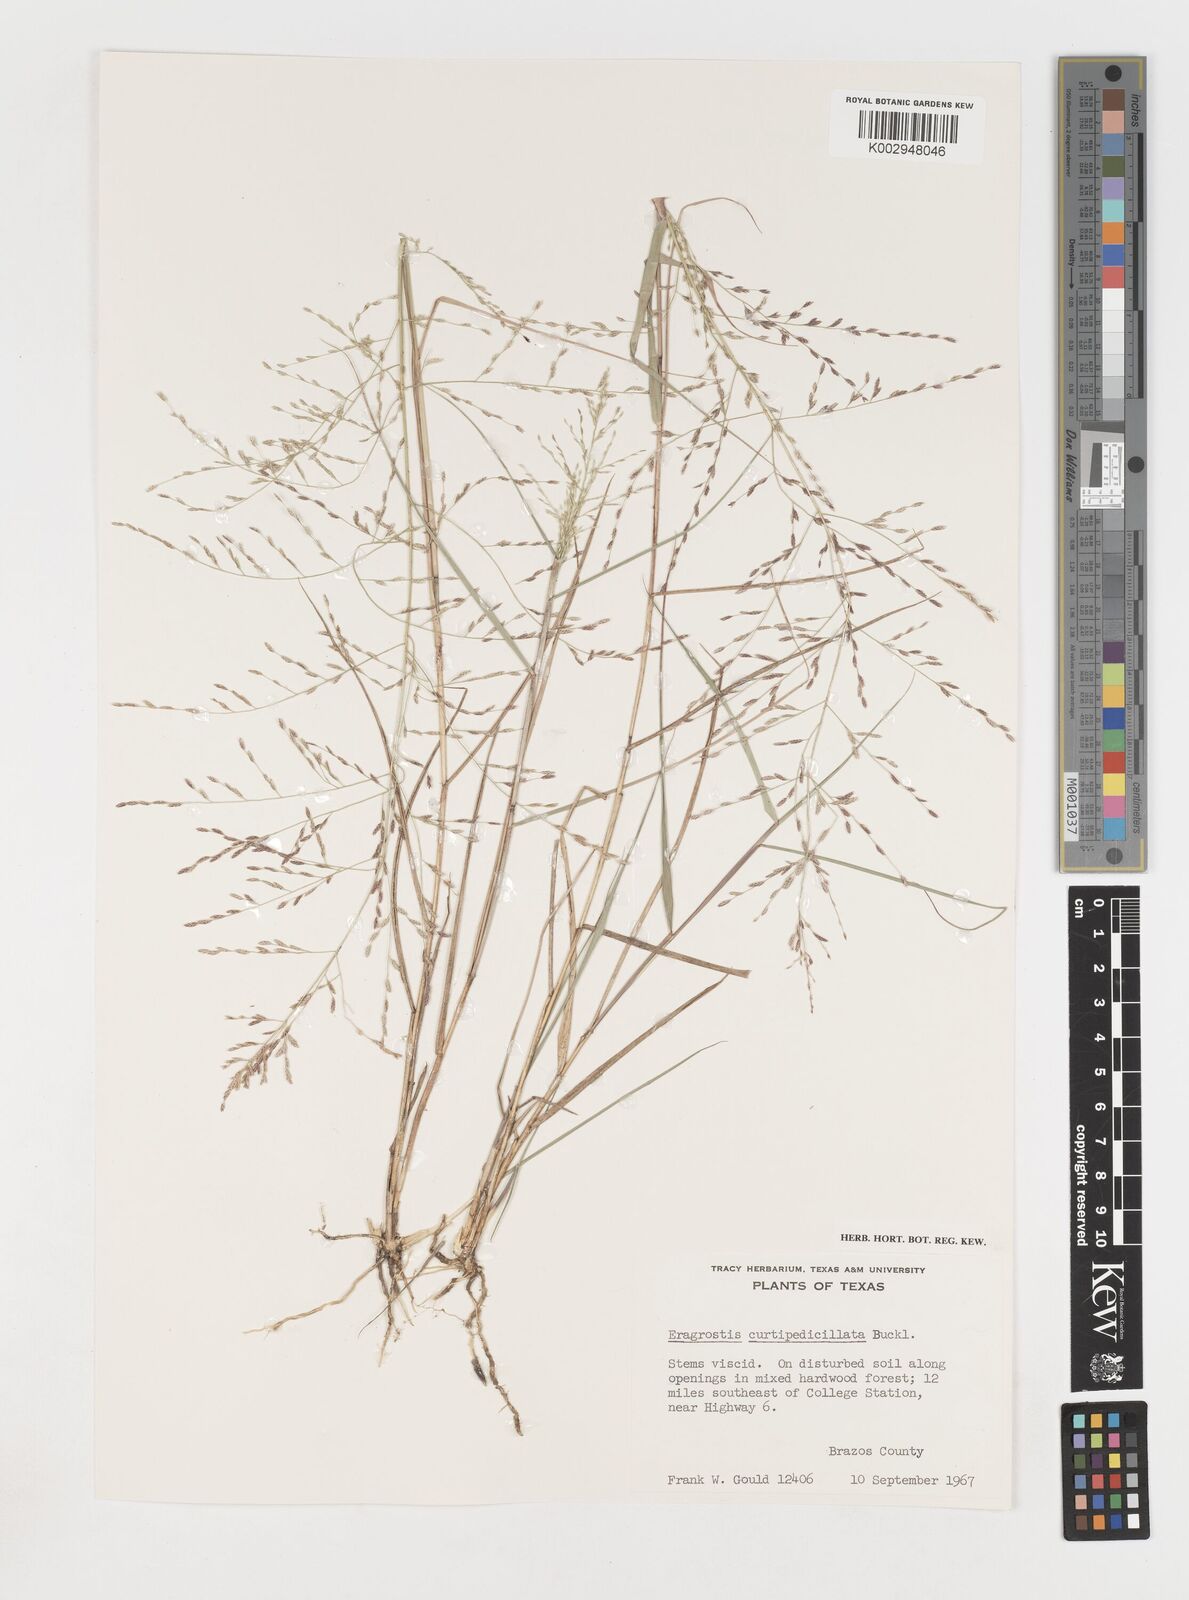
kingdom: Plantae
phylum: Tracheophyta
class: Liliopsida
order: Poales
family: Poaceae
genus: Eragrostis
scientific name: Eragrostis curtipedicellata
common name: Gummy love grass
